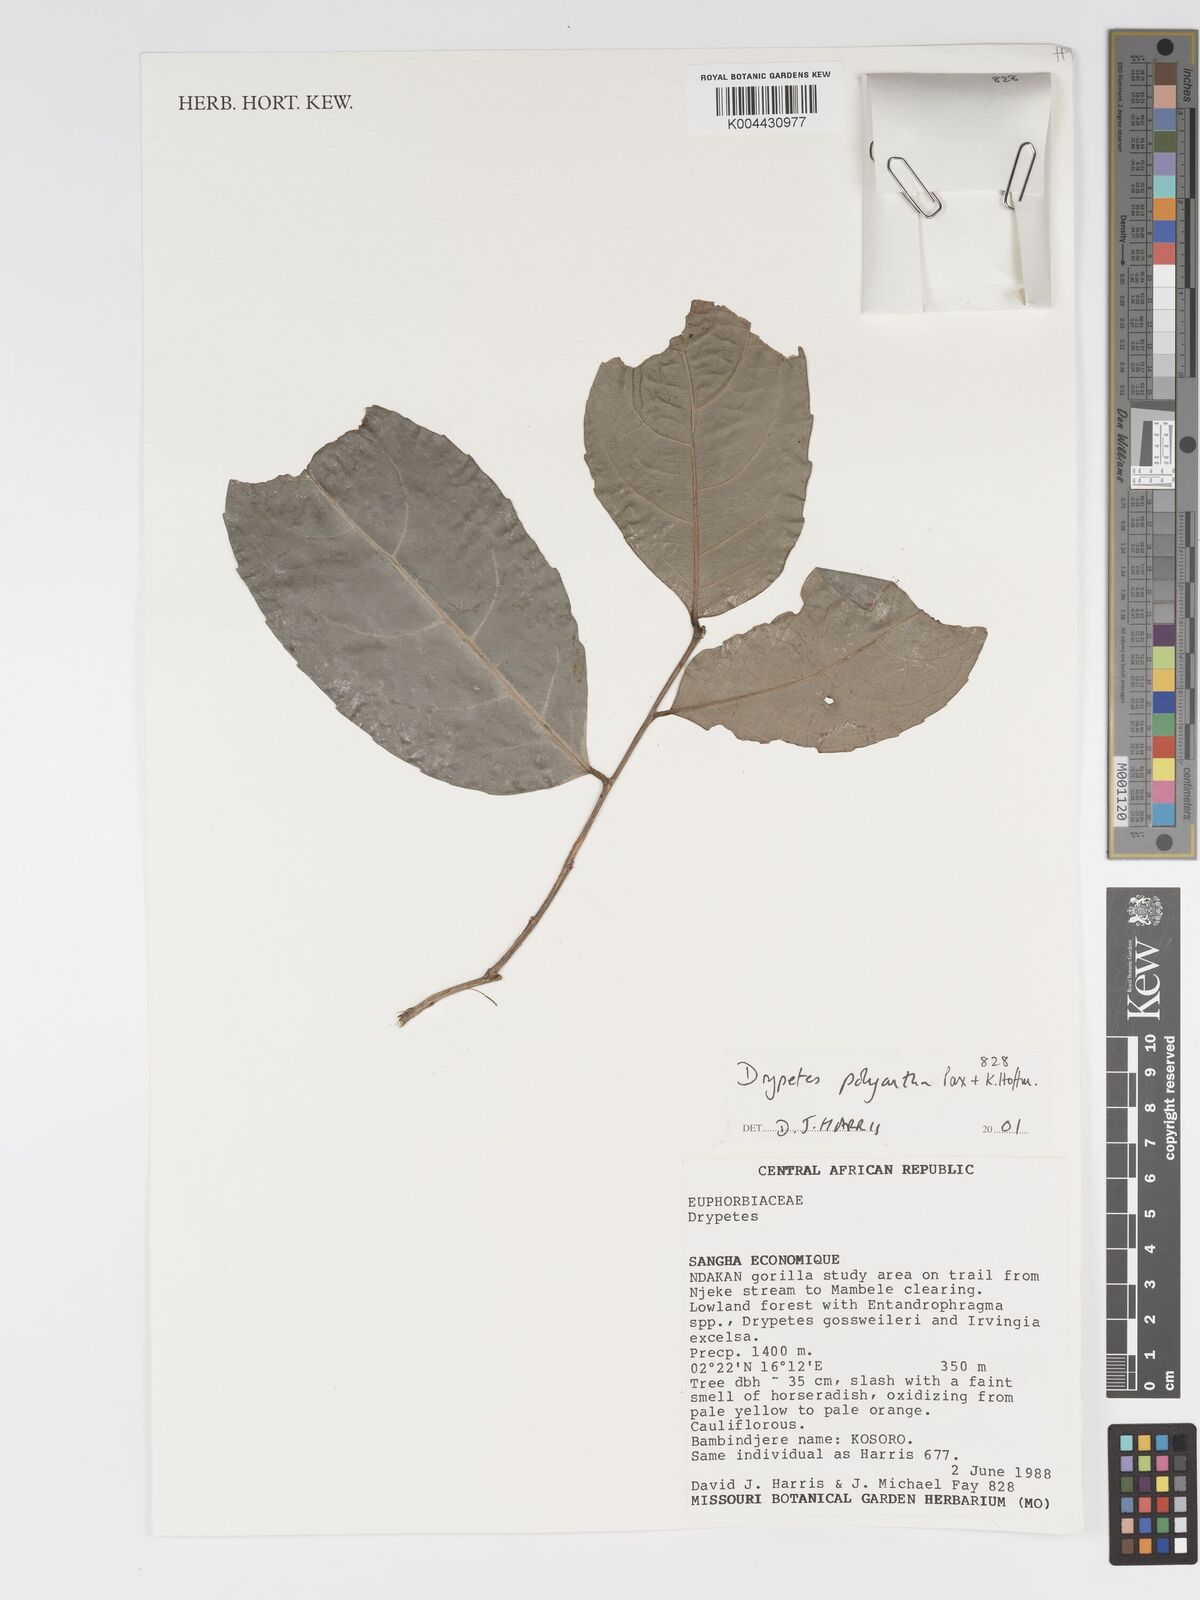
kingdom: Plantae
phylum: Tracheophyta
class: Magnoliopsida
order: Malpighiales
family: Putranjivaceae
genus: Drypetes
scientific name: Drypetes polyantha
